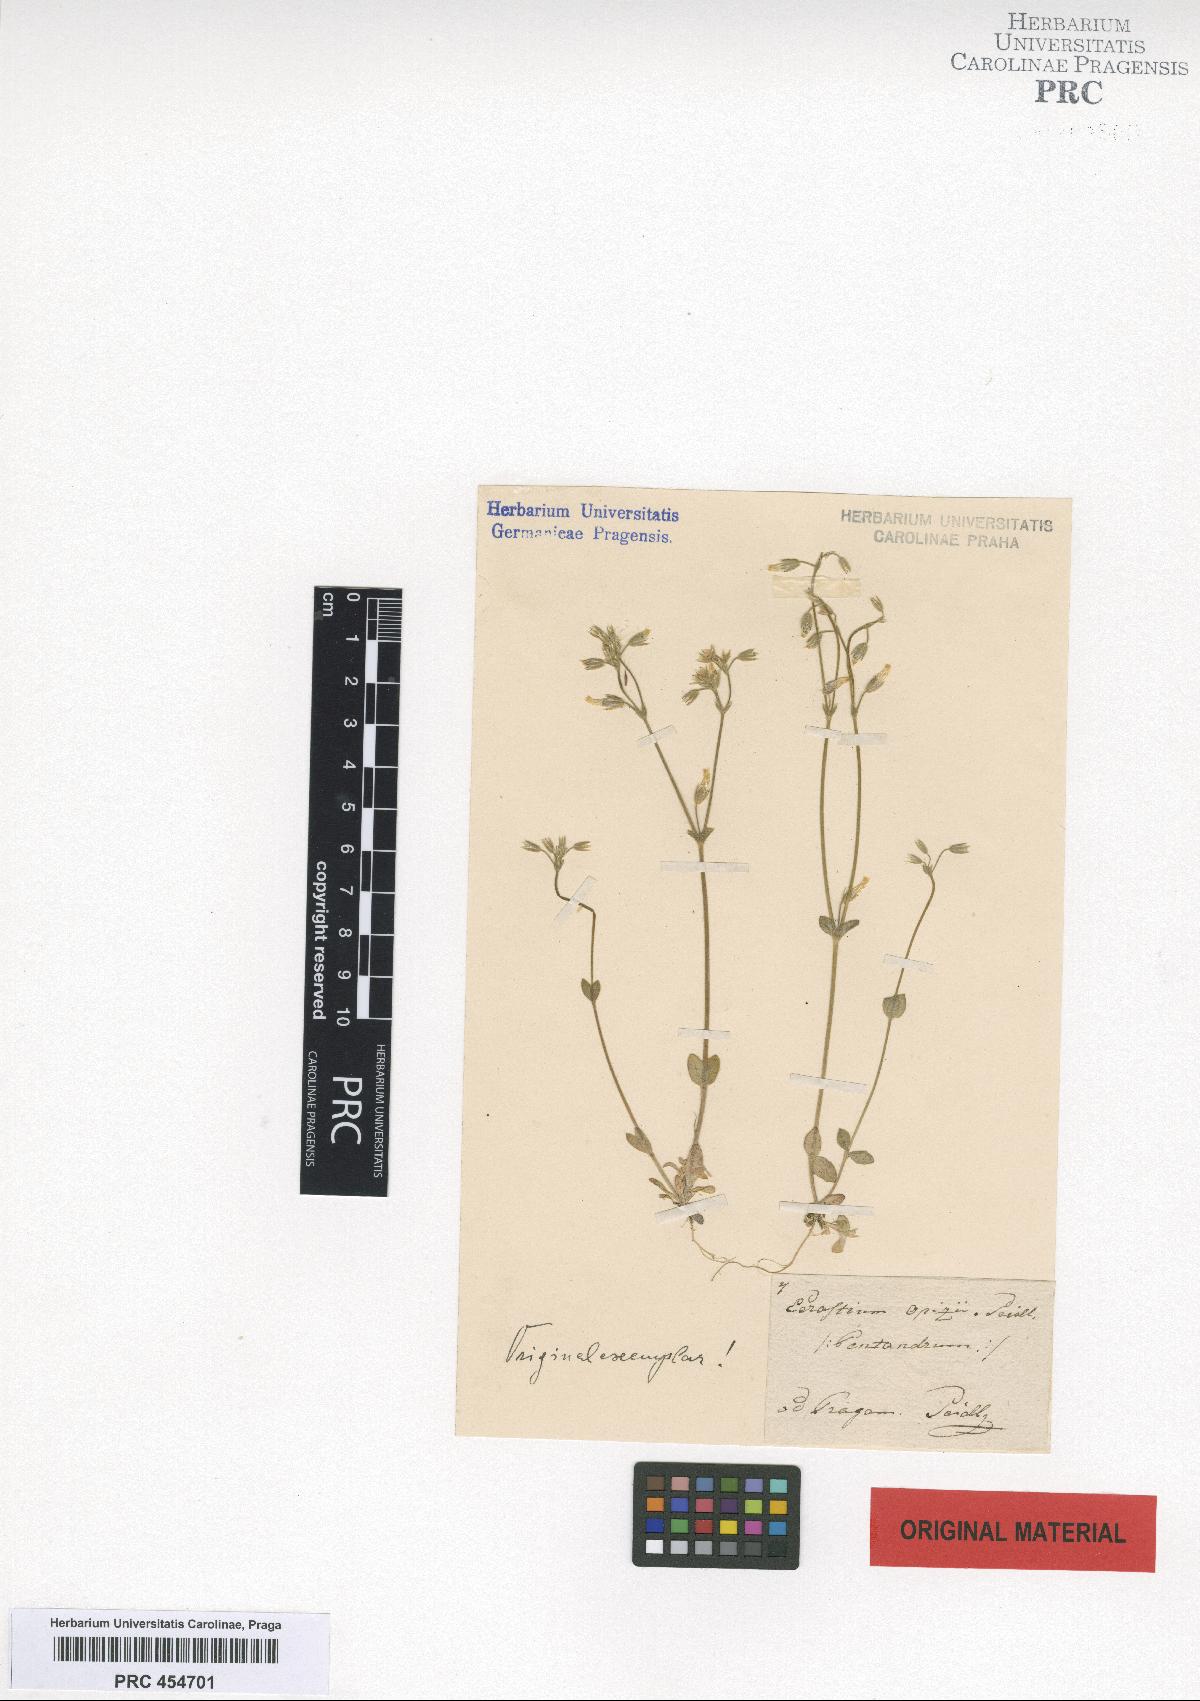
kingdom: Plantae
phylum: Tracheophyta
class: Magnoliopsida
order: Caryophyllales
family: Caryophyllaceae
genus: Cerastium
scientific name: Cerastium glutinosum
